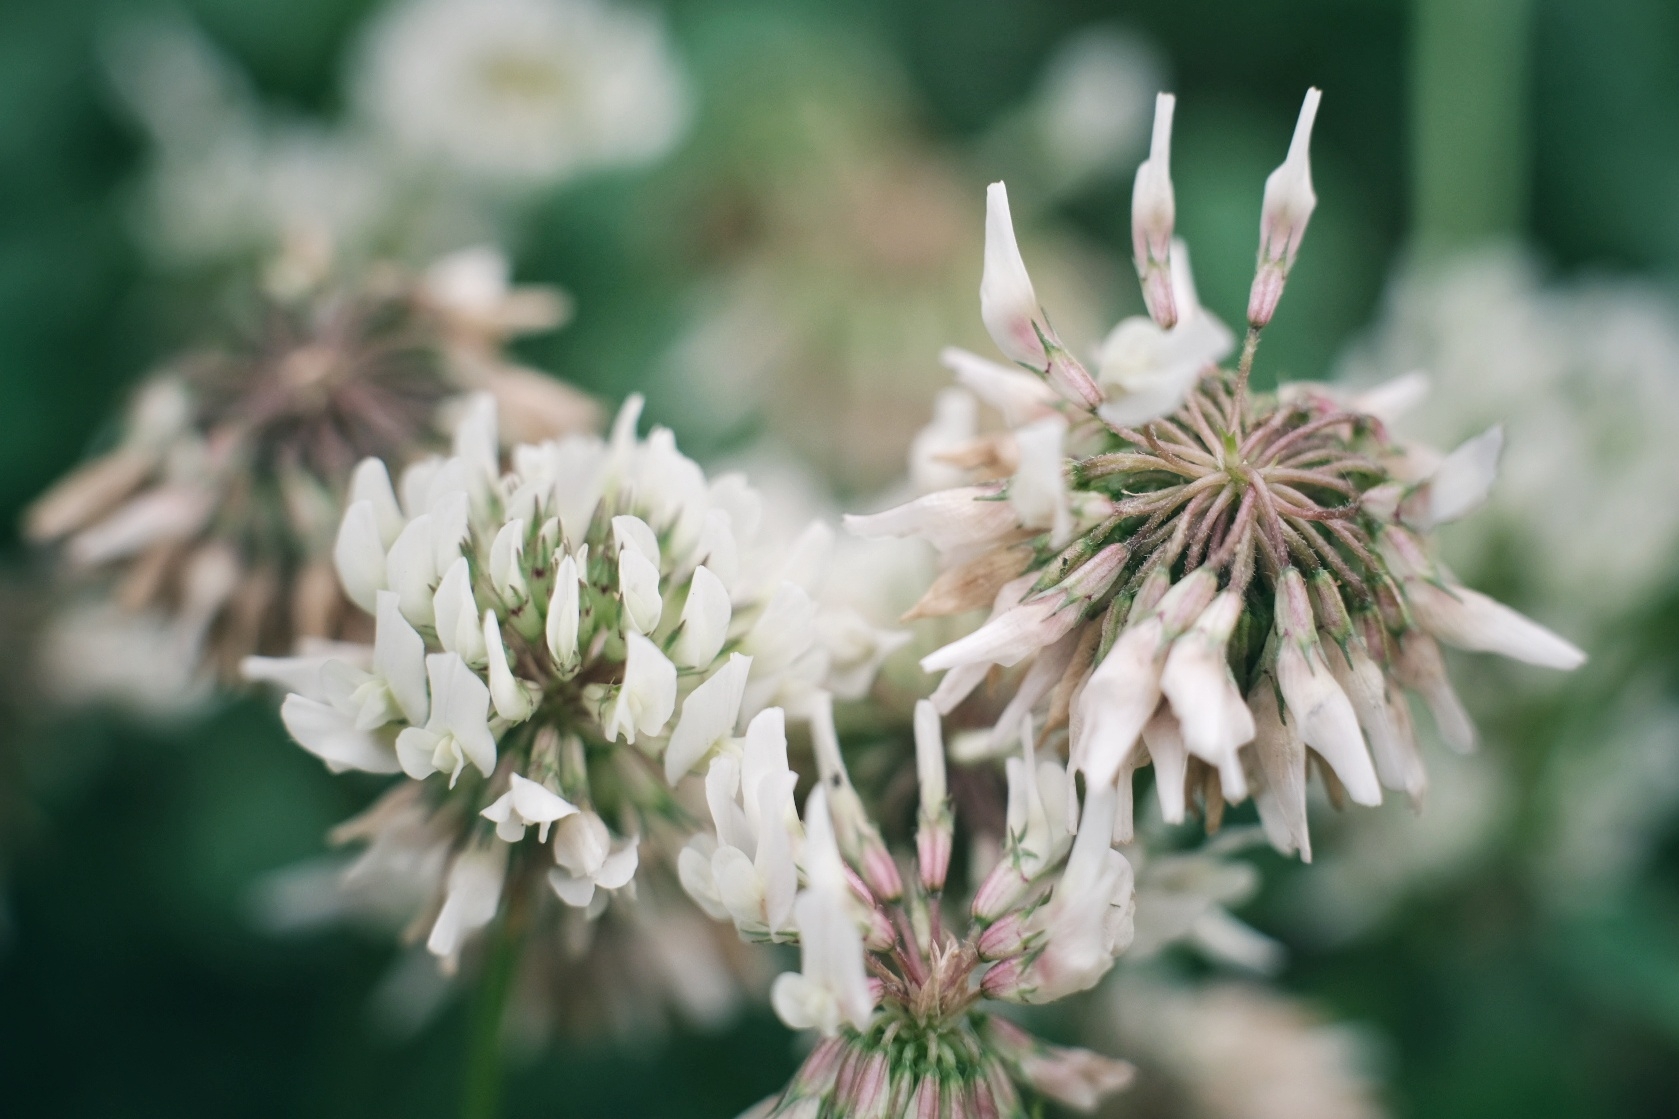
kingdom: Plantae
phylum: Tracheophyta
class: Magnoliopsida
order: Fabales
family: Fabaceae
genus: Trifolium
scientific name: Trifolium repens
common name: Hvid-kløver
